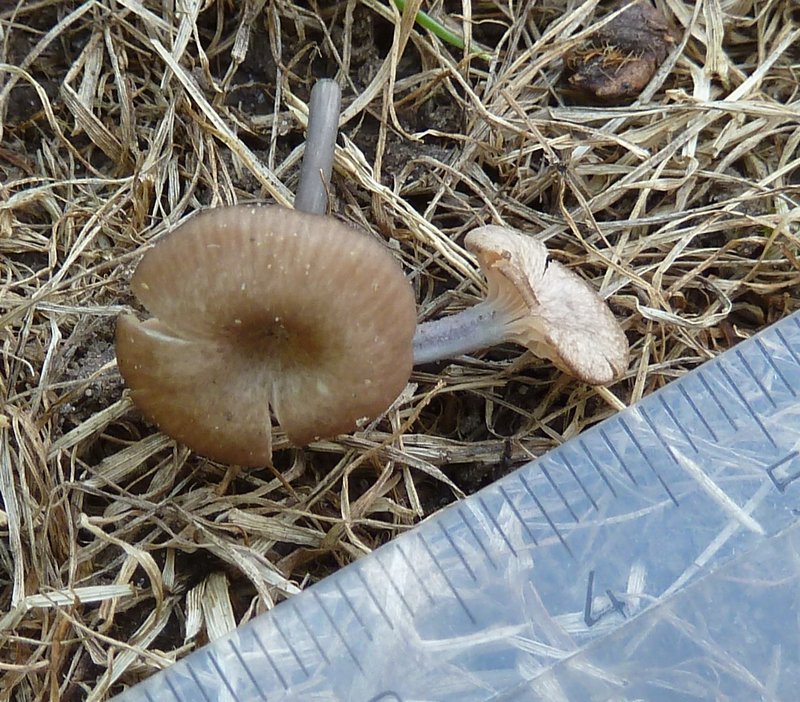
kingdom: Fungi
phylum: Basidiomycota
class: Agaricomycetes
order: Agaricales
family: Entolomataceae
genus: Entoloma
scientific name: Entoloma incarnatofuscescens
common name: tragt-rødblad
